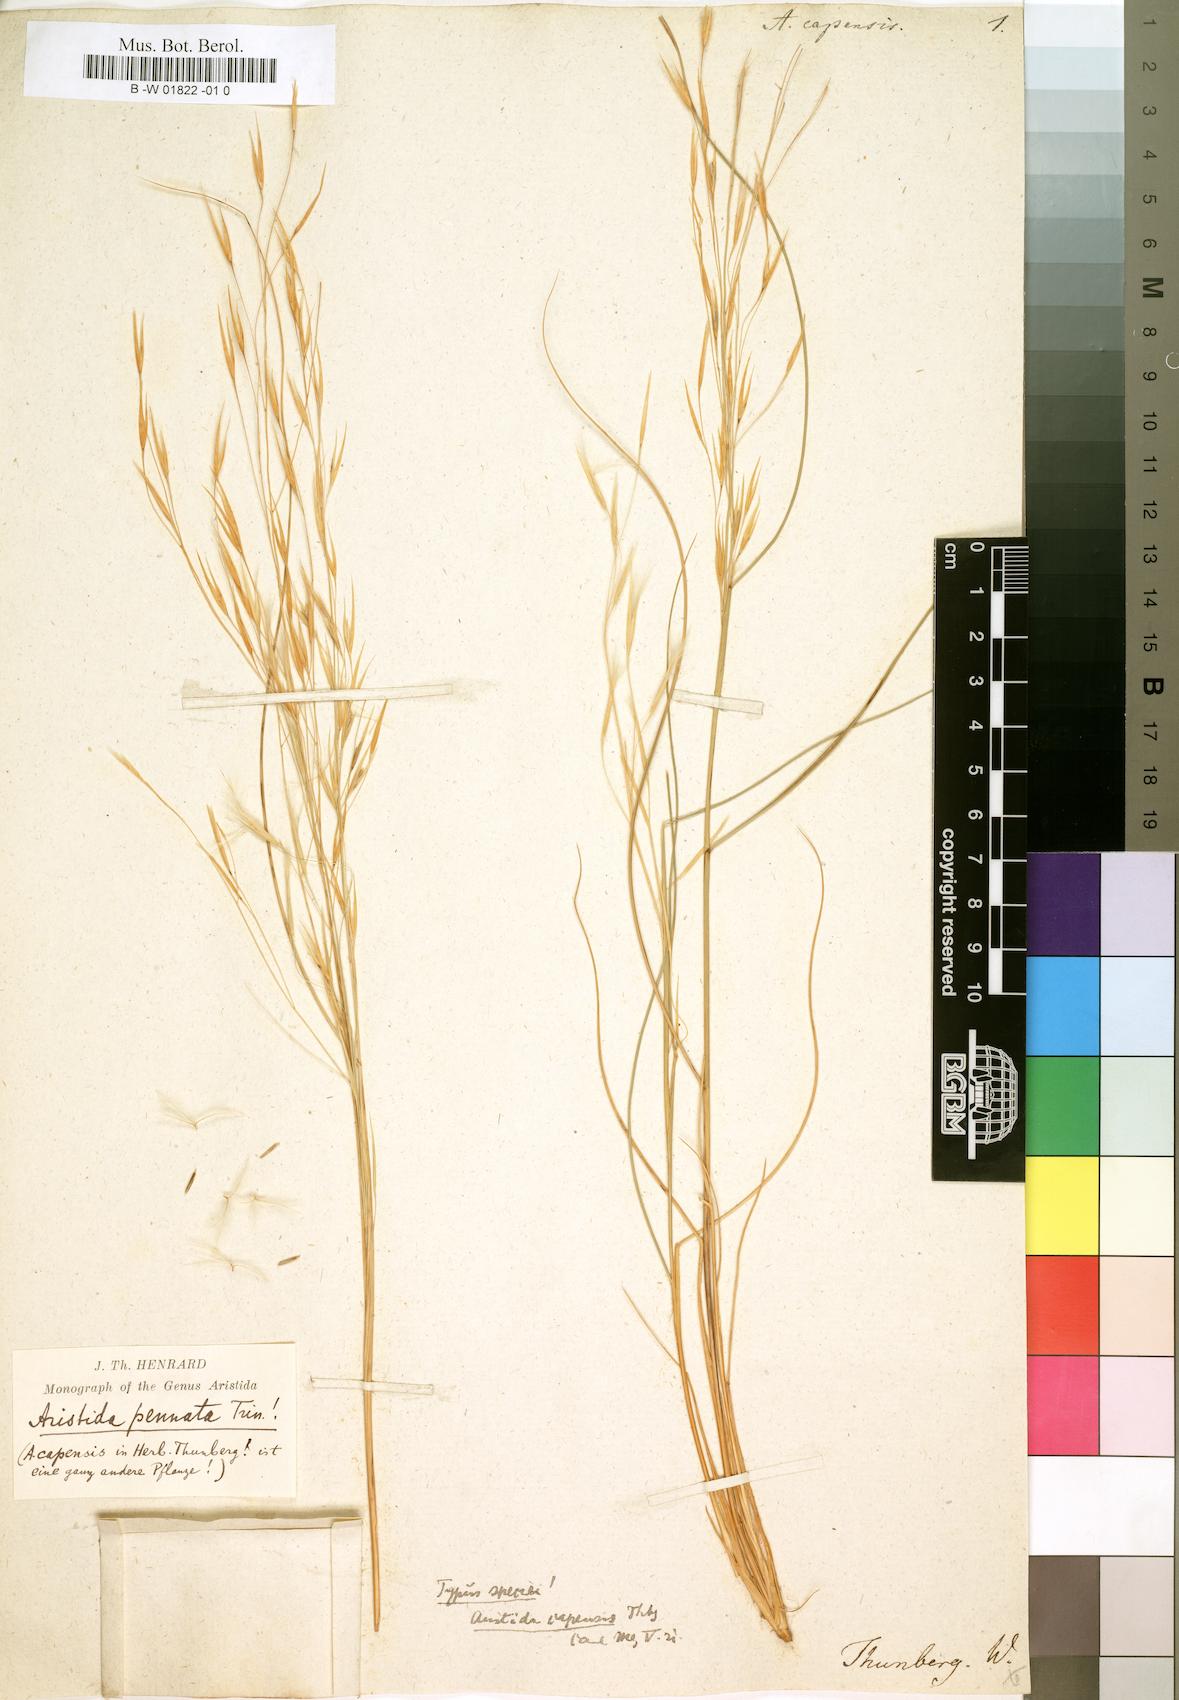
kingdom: Plantae
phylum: Tracheophyta
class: Liliopsida
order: Poales
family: Poaceae
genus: Aristida
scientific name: Aristida capensis
